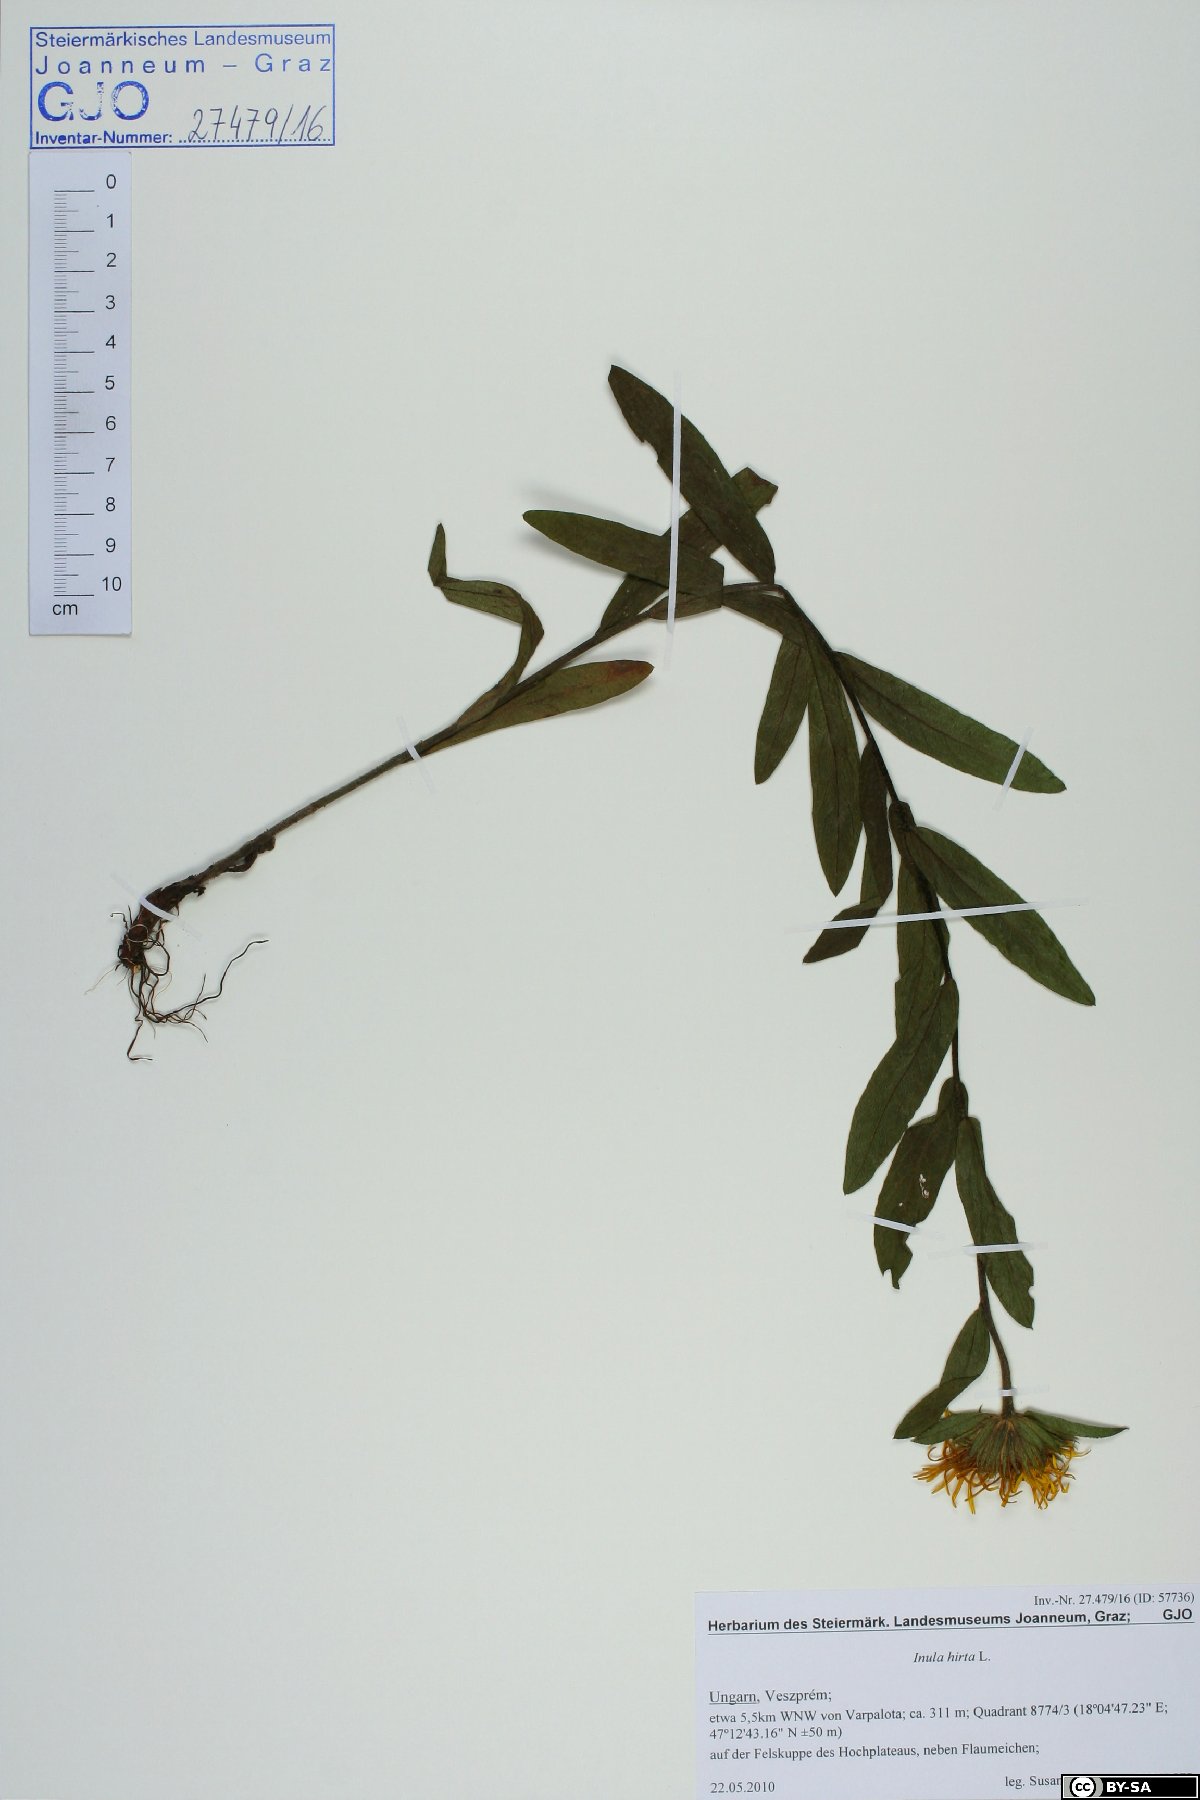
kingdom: Plantae
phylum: Tracheophyta
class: Magnoliopsida
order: Asterales
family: Asteraceae
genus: Pentanema
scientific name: Pentanema hirtum
